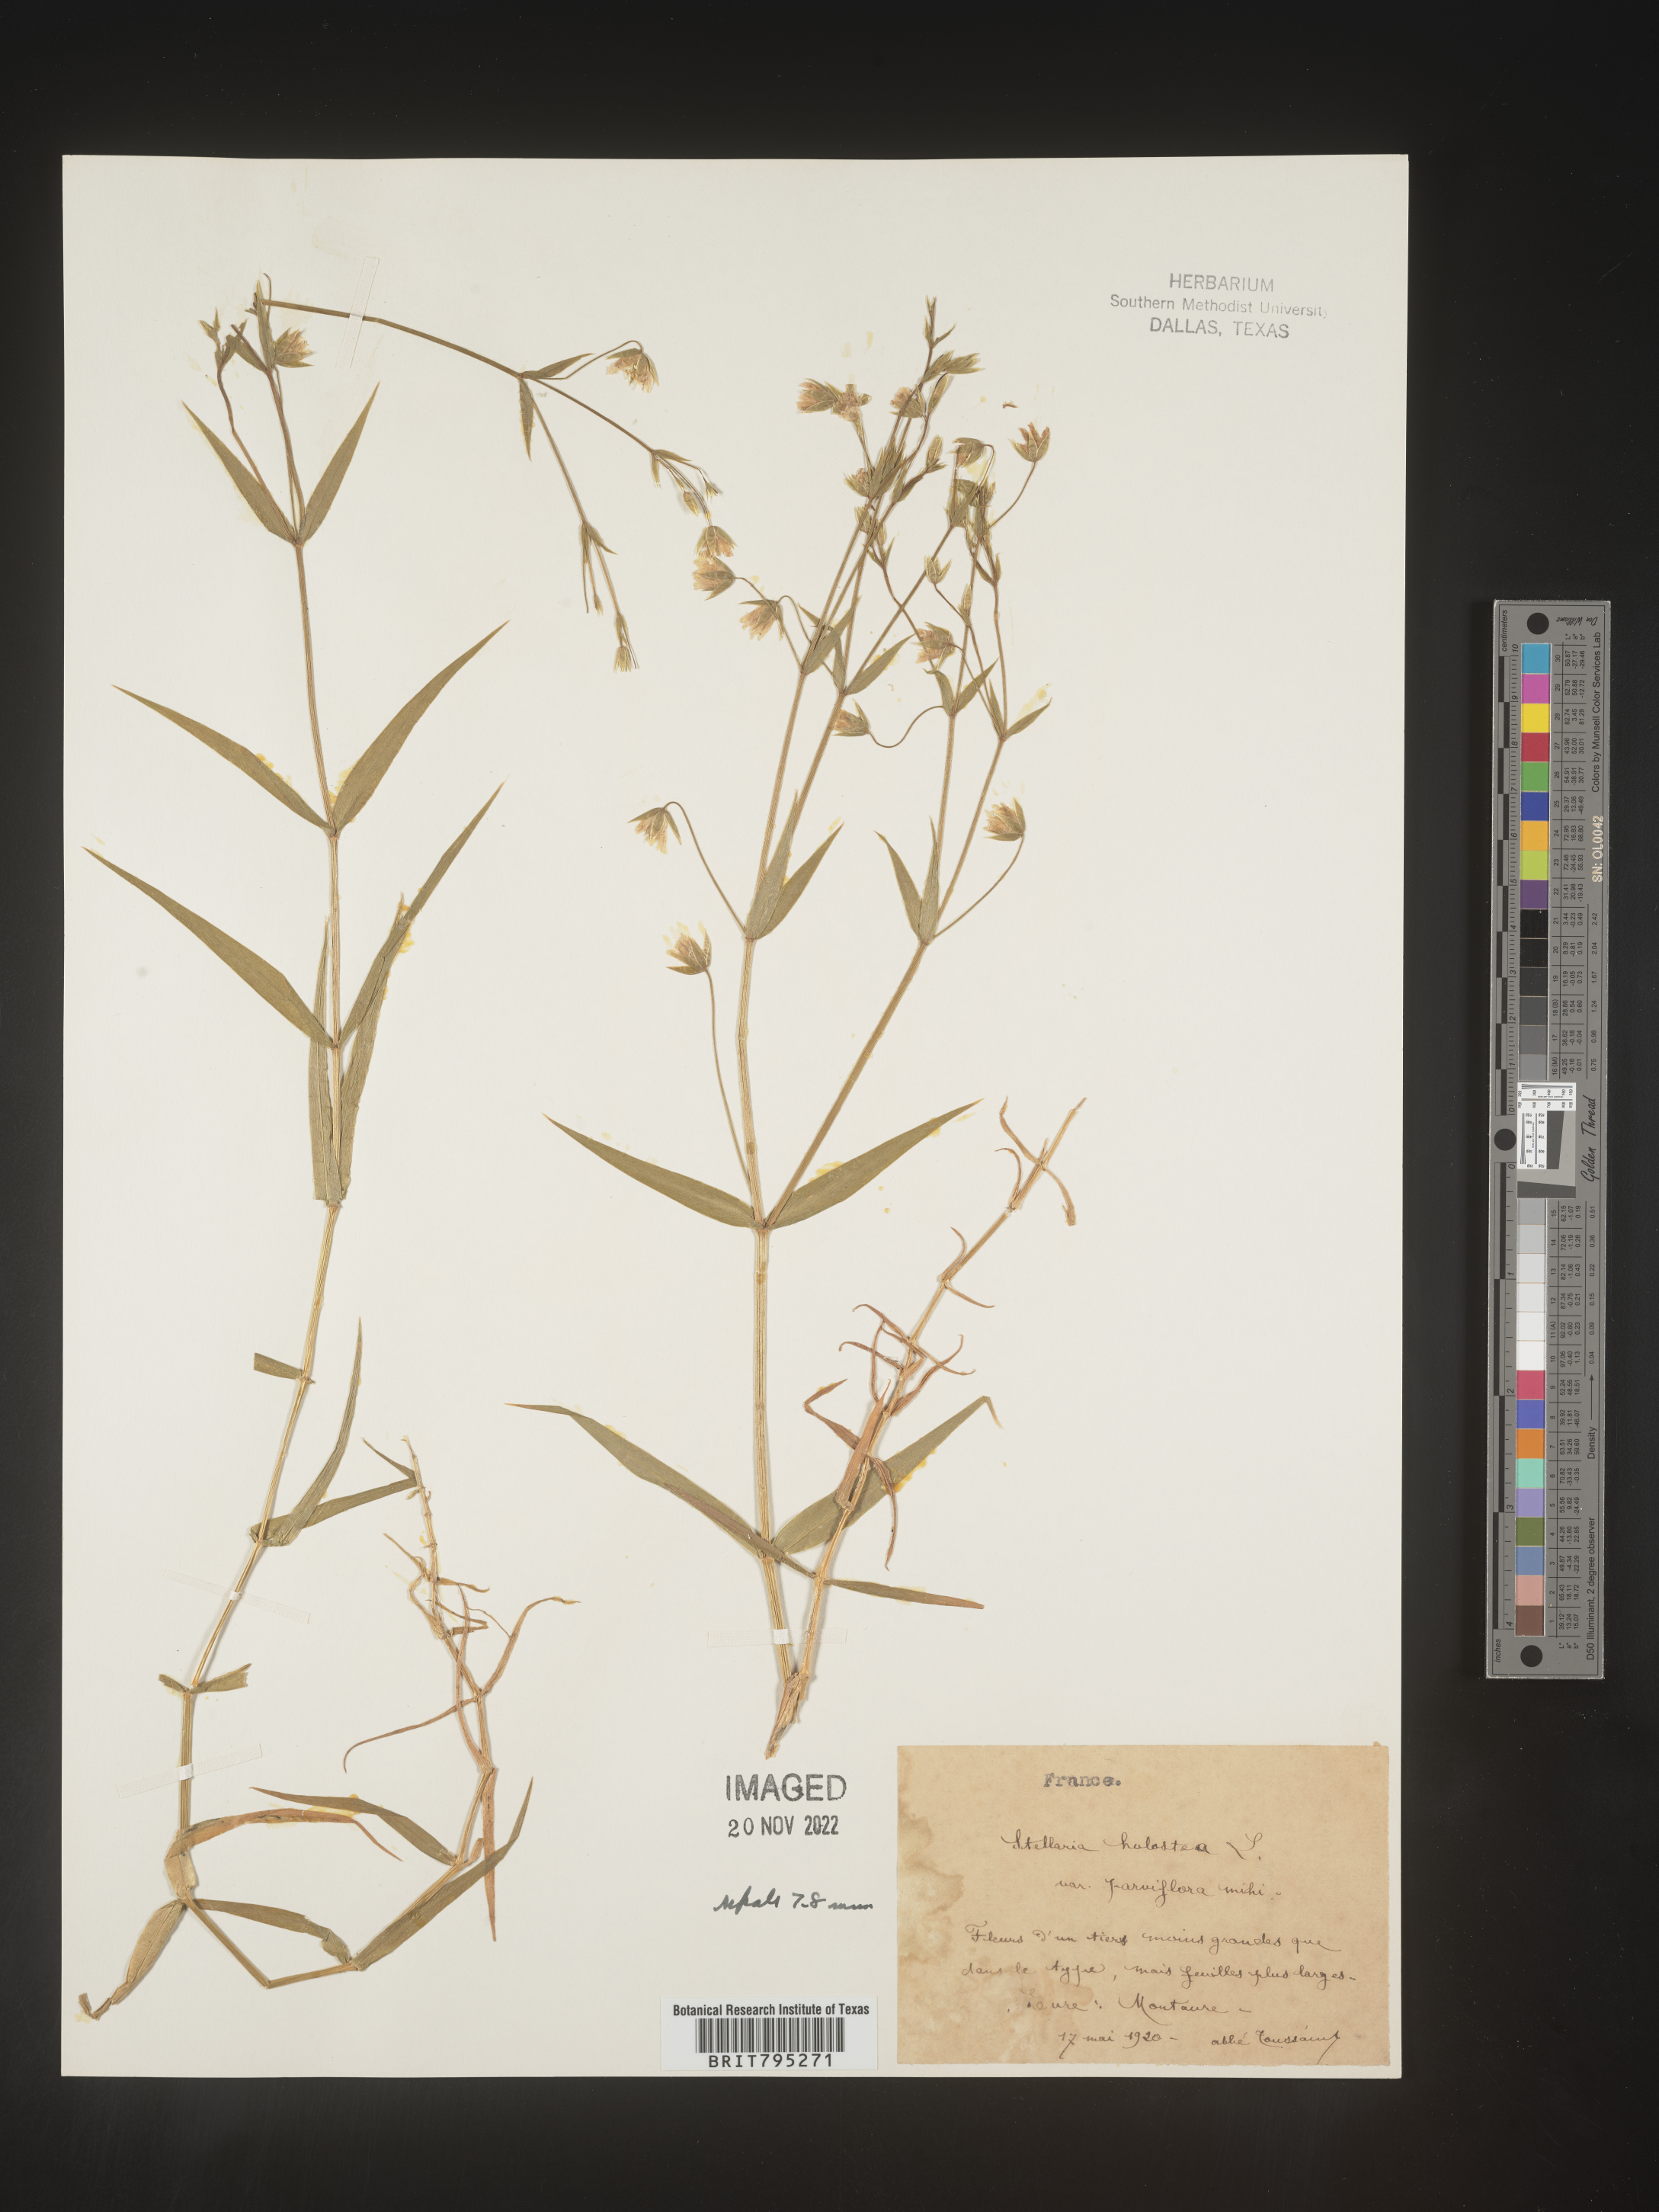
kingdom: Plantae
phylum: Tracheophyta
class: Magnoliopsida
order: Caryophyllales
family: Caryophyllaceae
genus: Stellaria
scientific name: Stellaria
